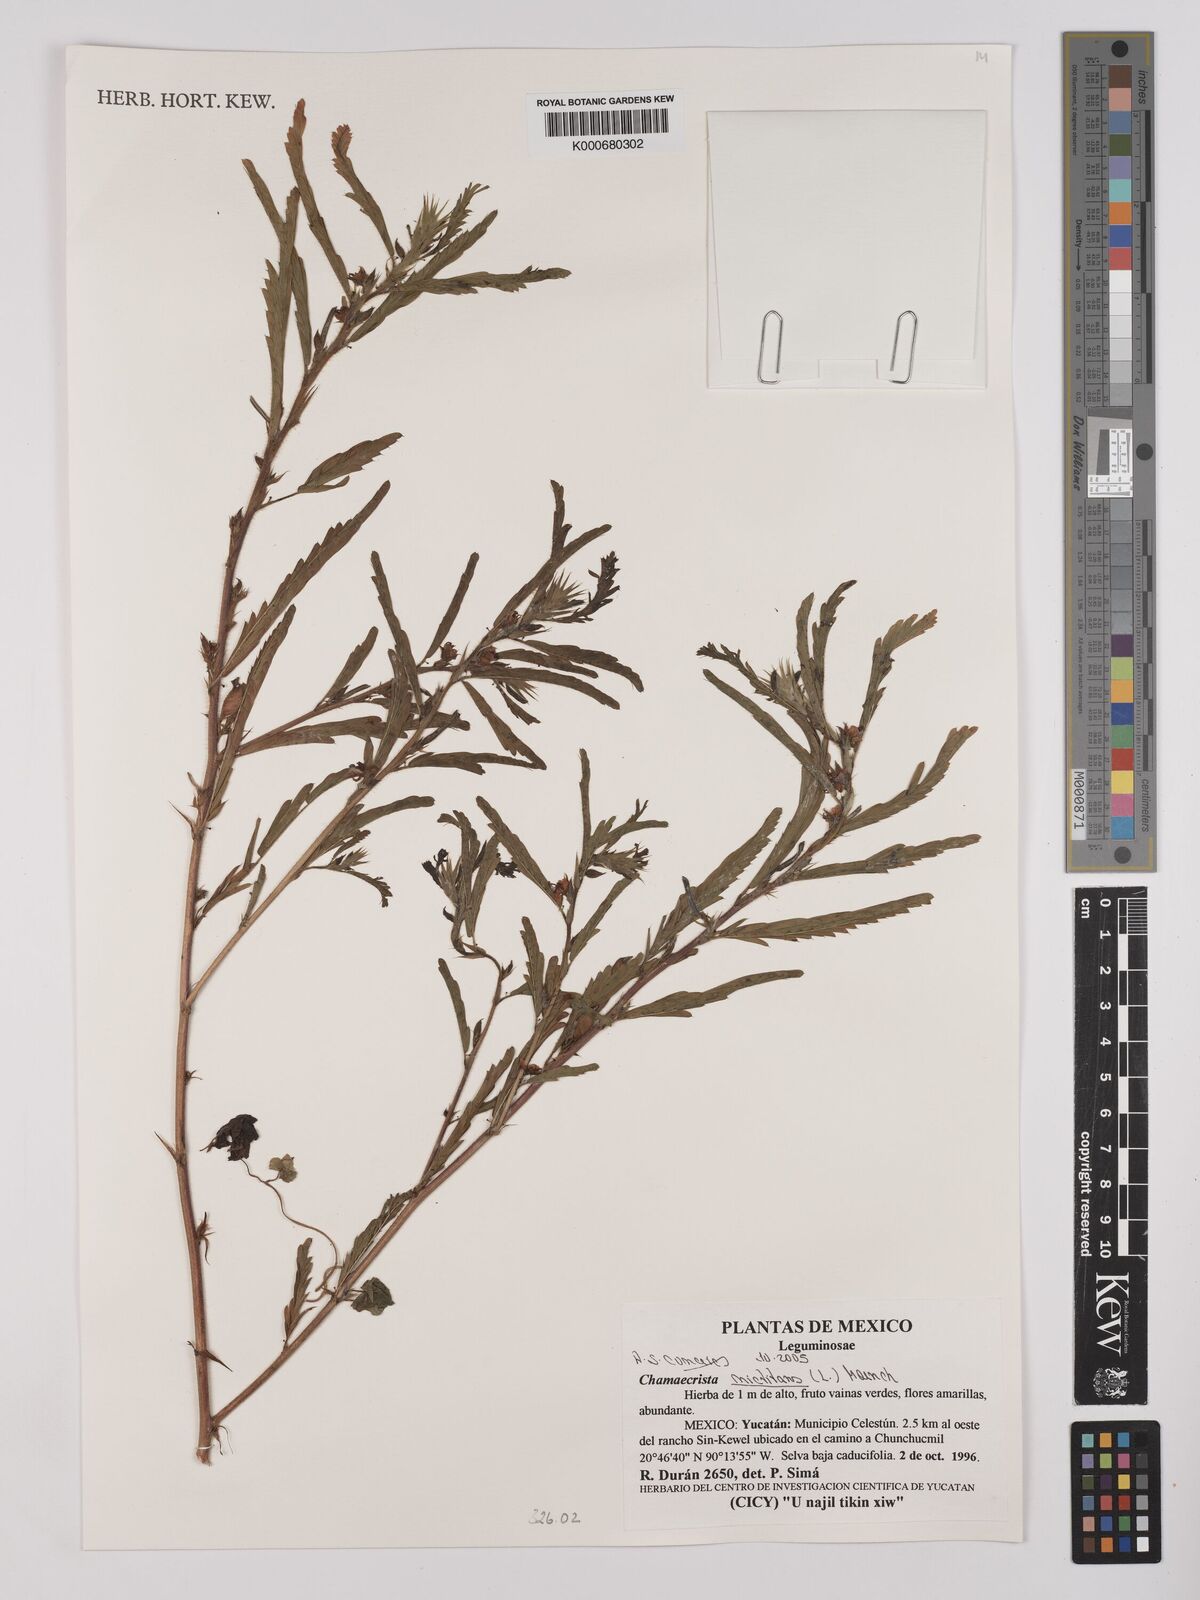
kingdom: Plantae
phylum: Tracheophyta
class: Magnoliopsida
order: Fabales
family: Fabaceae
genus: Chamaecrista
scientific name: Chamaecrista nictitans
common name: Sensitive cassia
